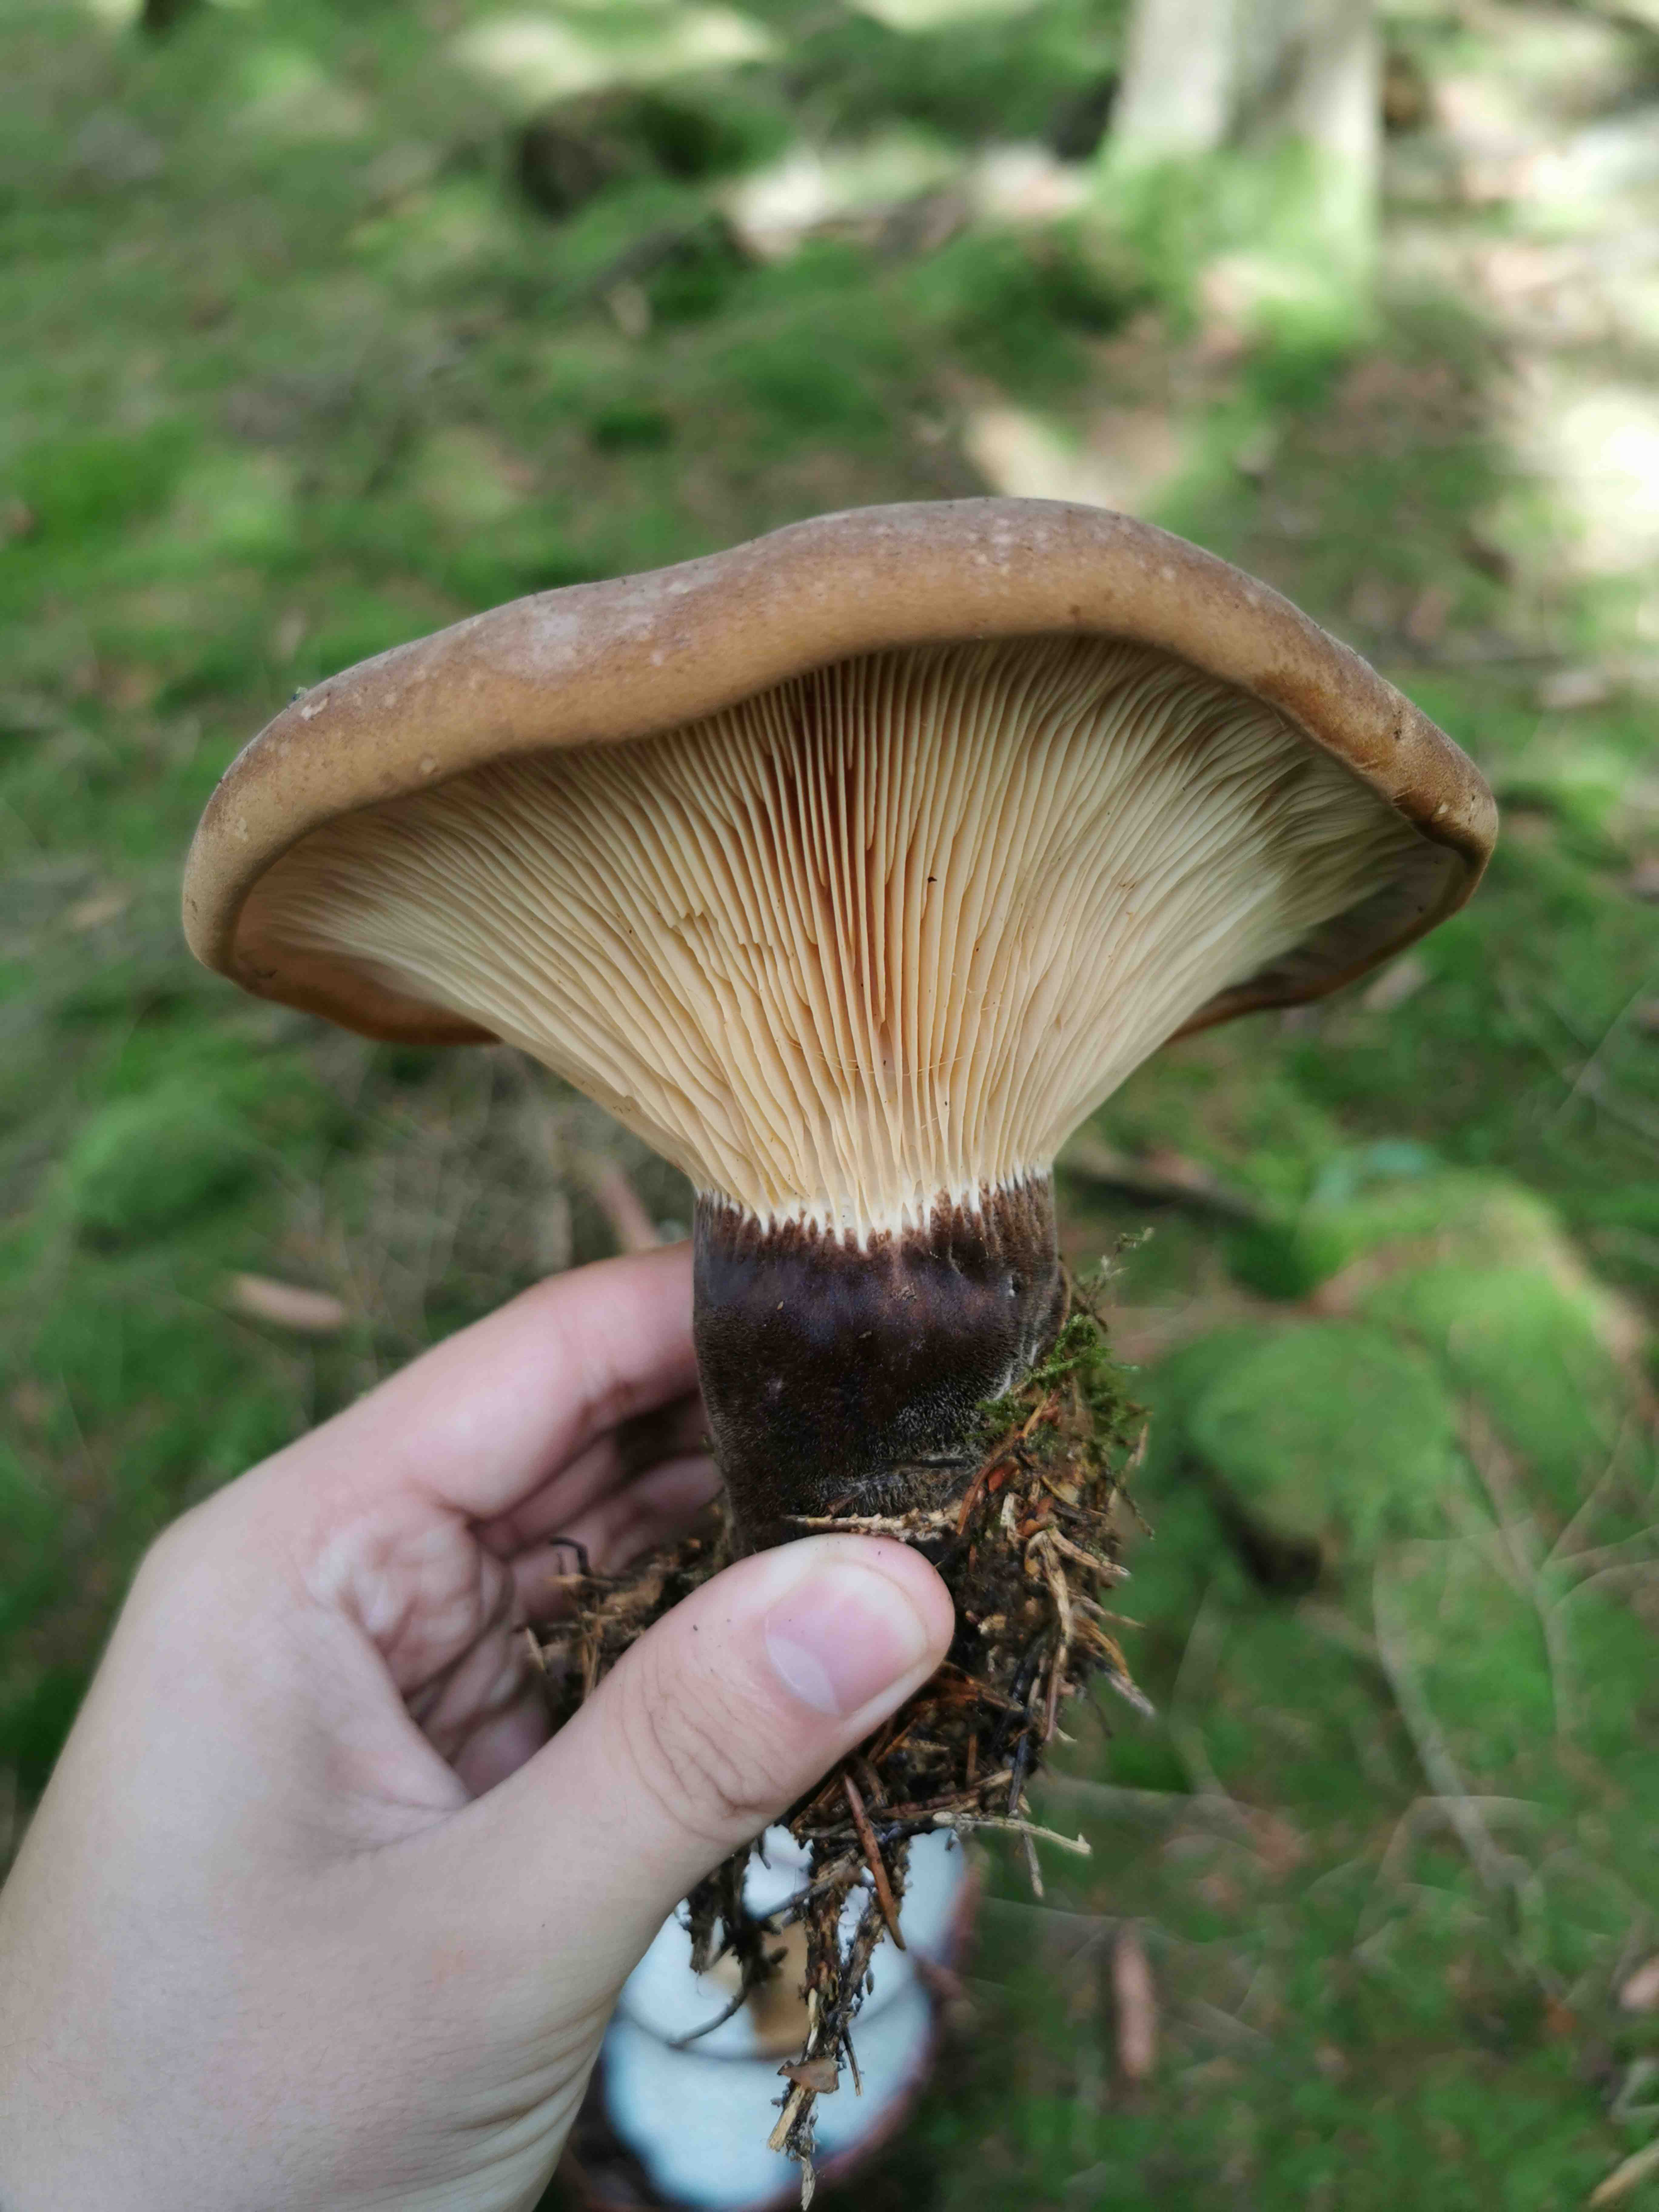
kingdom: Fungi
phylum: Basidiomycota
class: Agaricomycetes
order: Boletales
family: Tapinellaceae
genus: Tapinella
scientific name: Tapinella atrotomentosa
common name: sortfiltet viftesvamp
